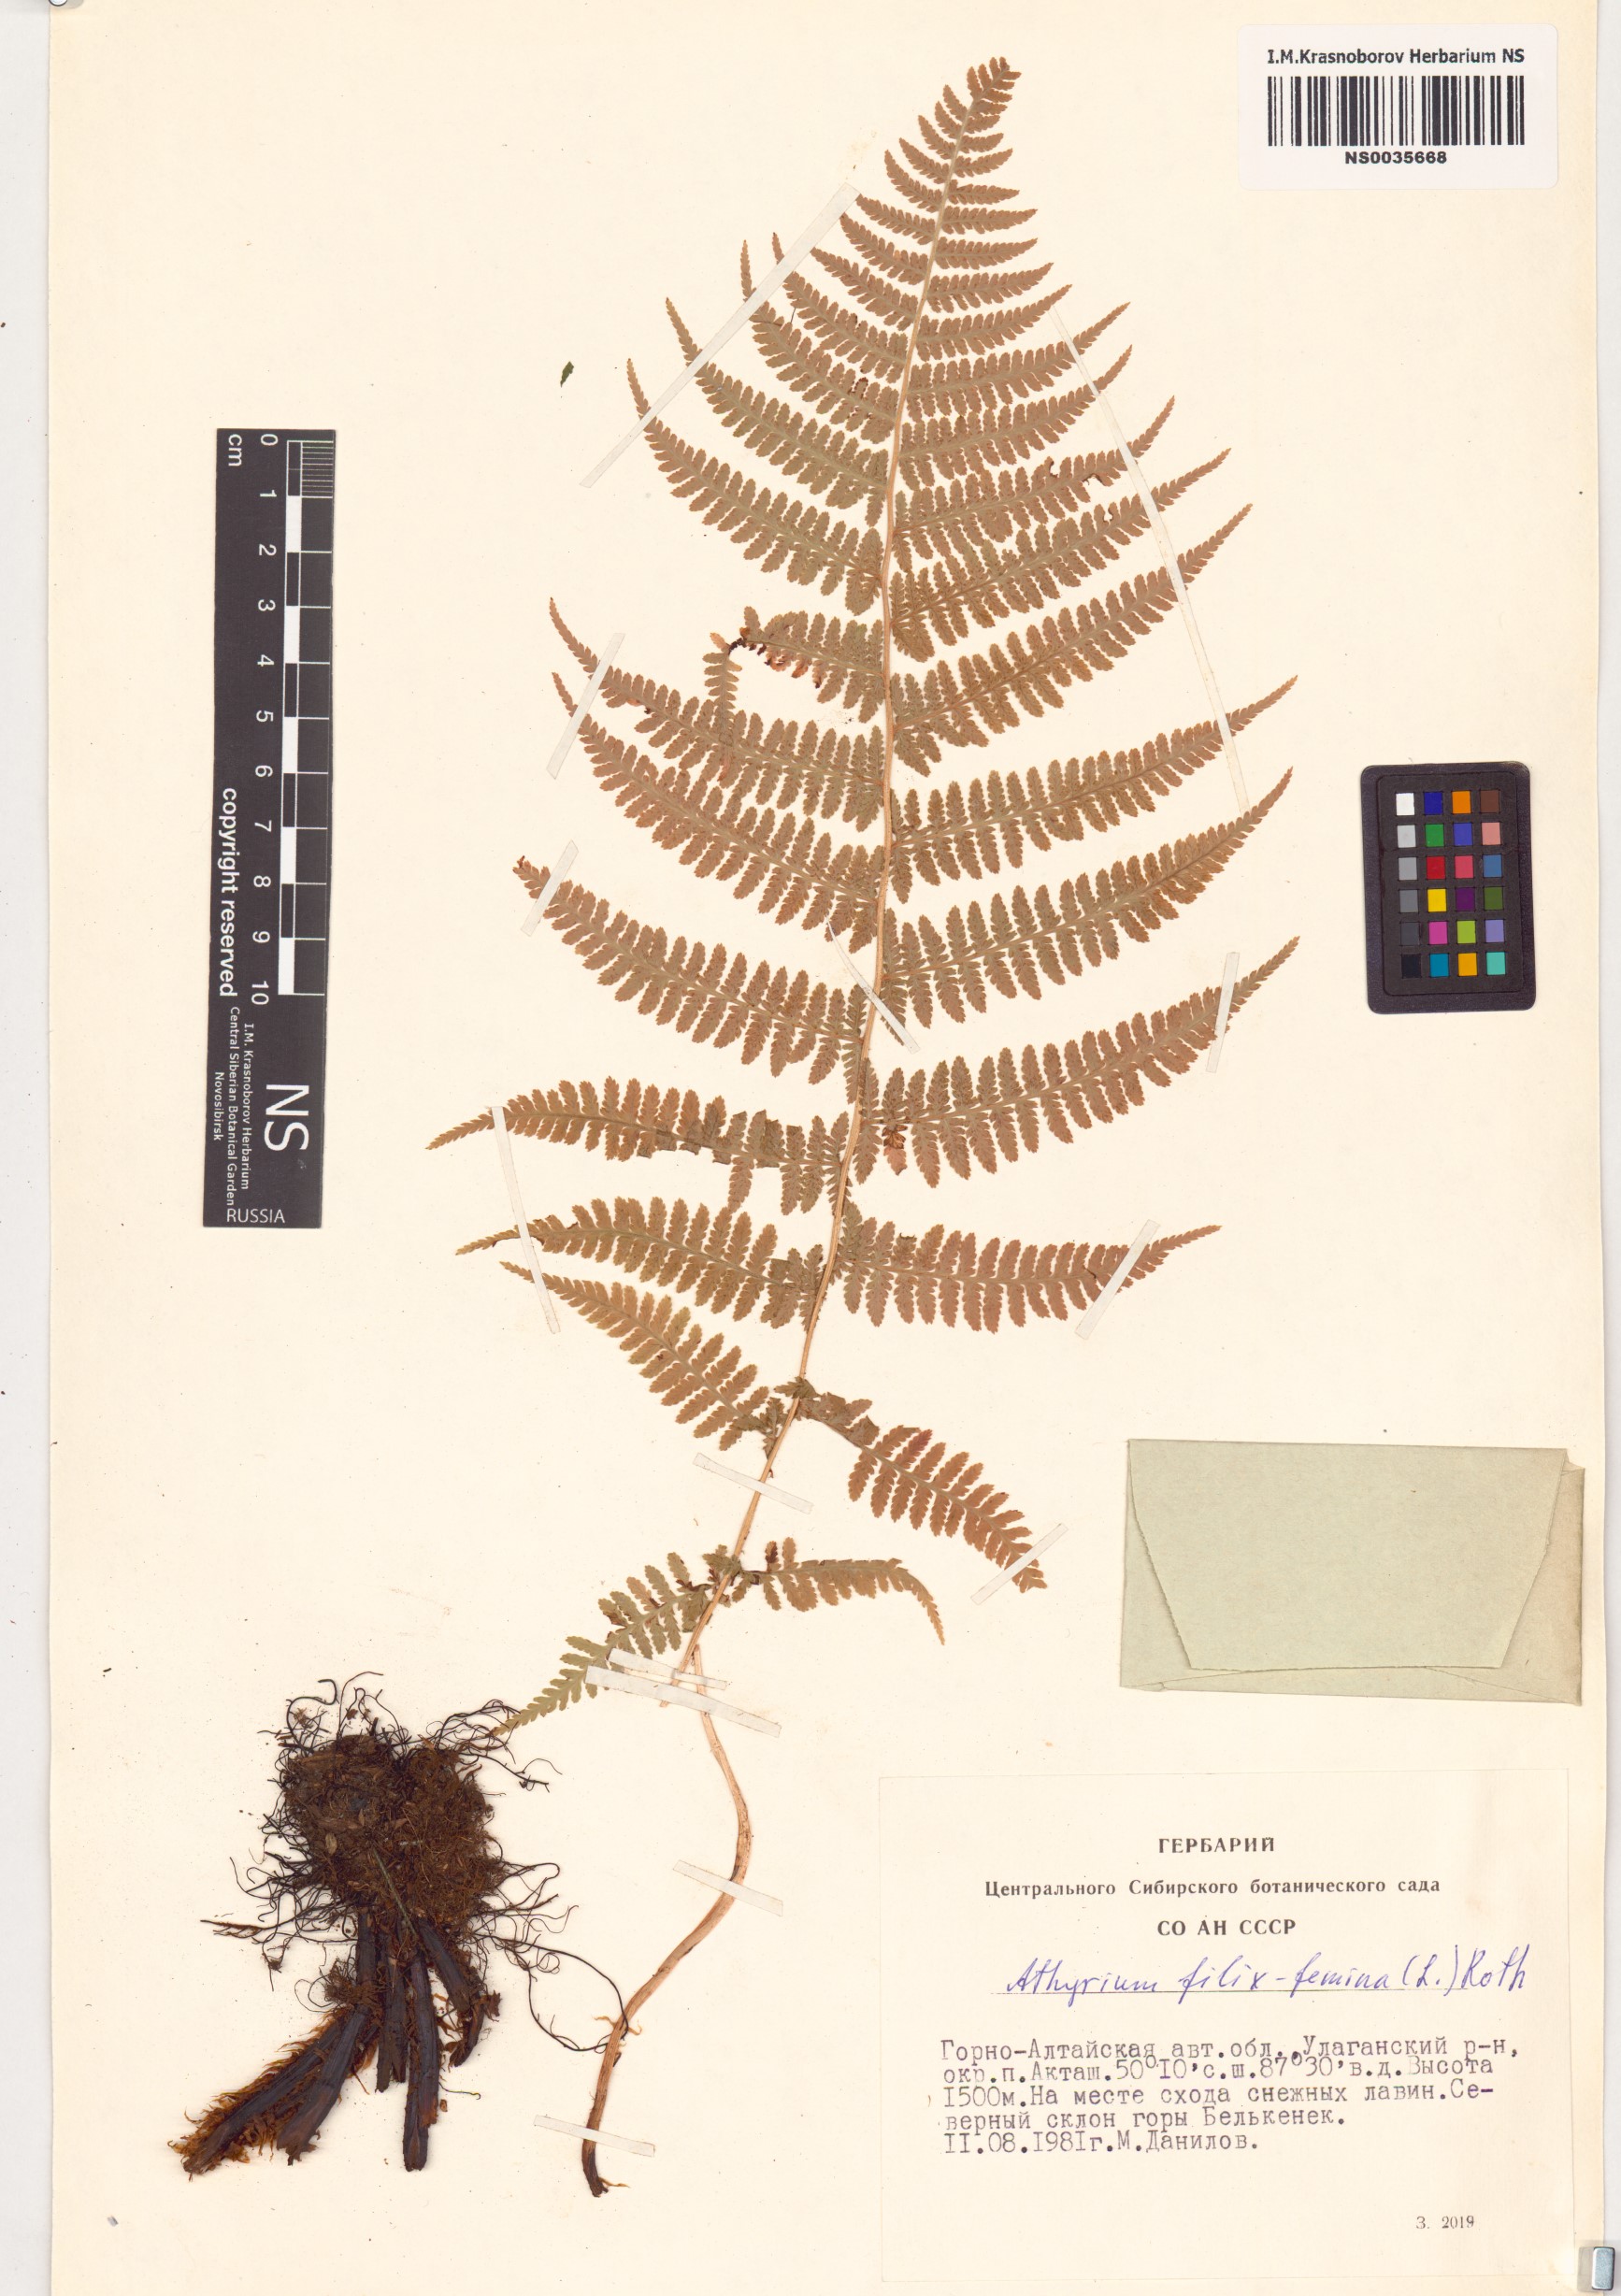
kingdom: Plantae
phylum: Tracheophyta
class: Polypodiopsida
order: Polypodiales
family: Athyriaceae
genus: Athyrium
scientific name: Athyrium filix-femina
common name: Lady fern
